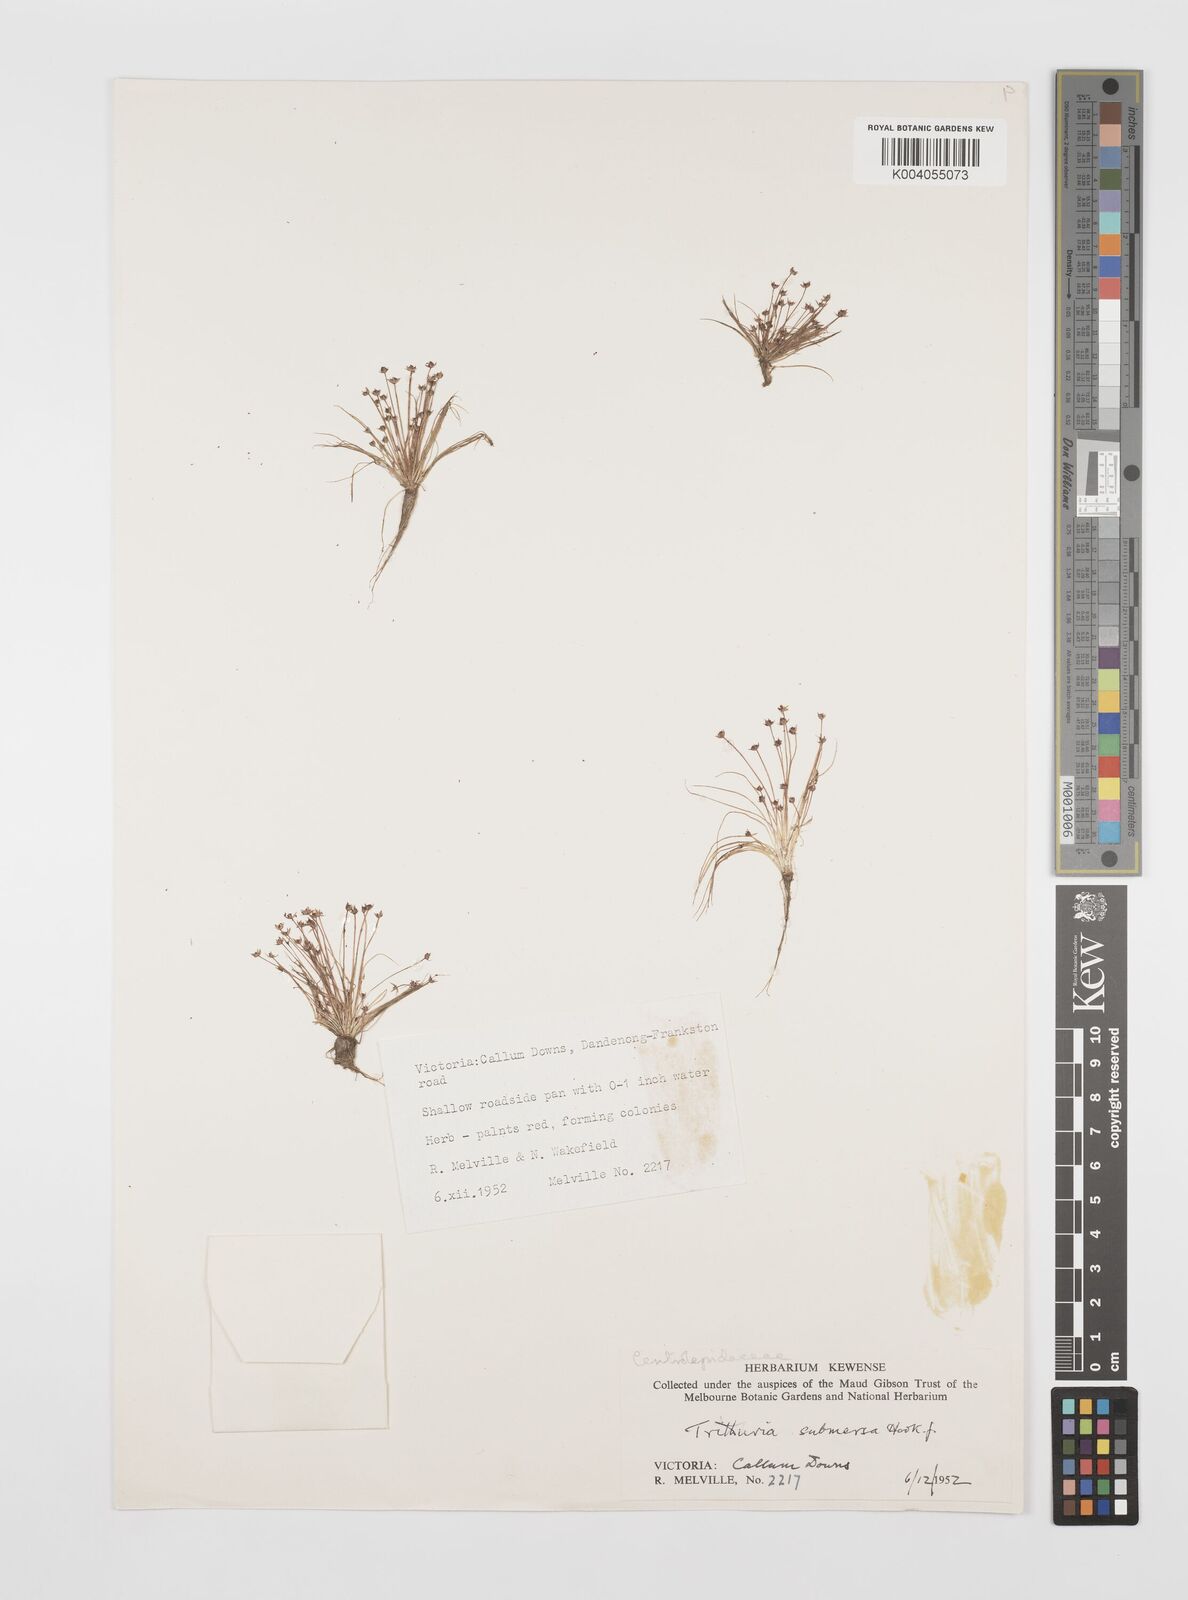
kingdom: Plantae
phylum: Tracheophyta
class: Magnoliopsida
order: Nymphaeales
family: Hydatellaceae
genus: Trithuria
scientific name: Trithuria submersa
